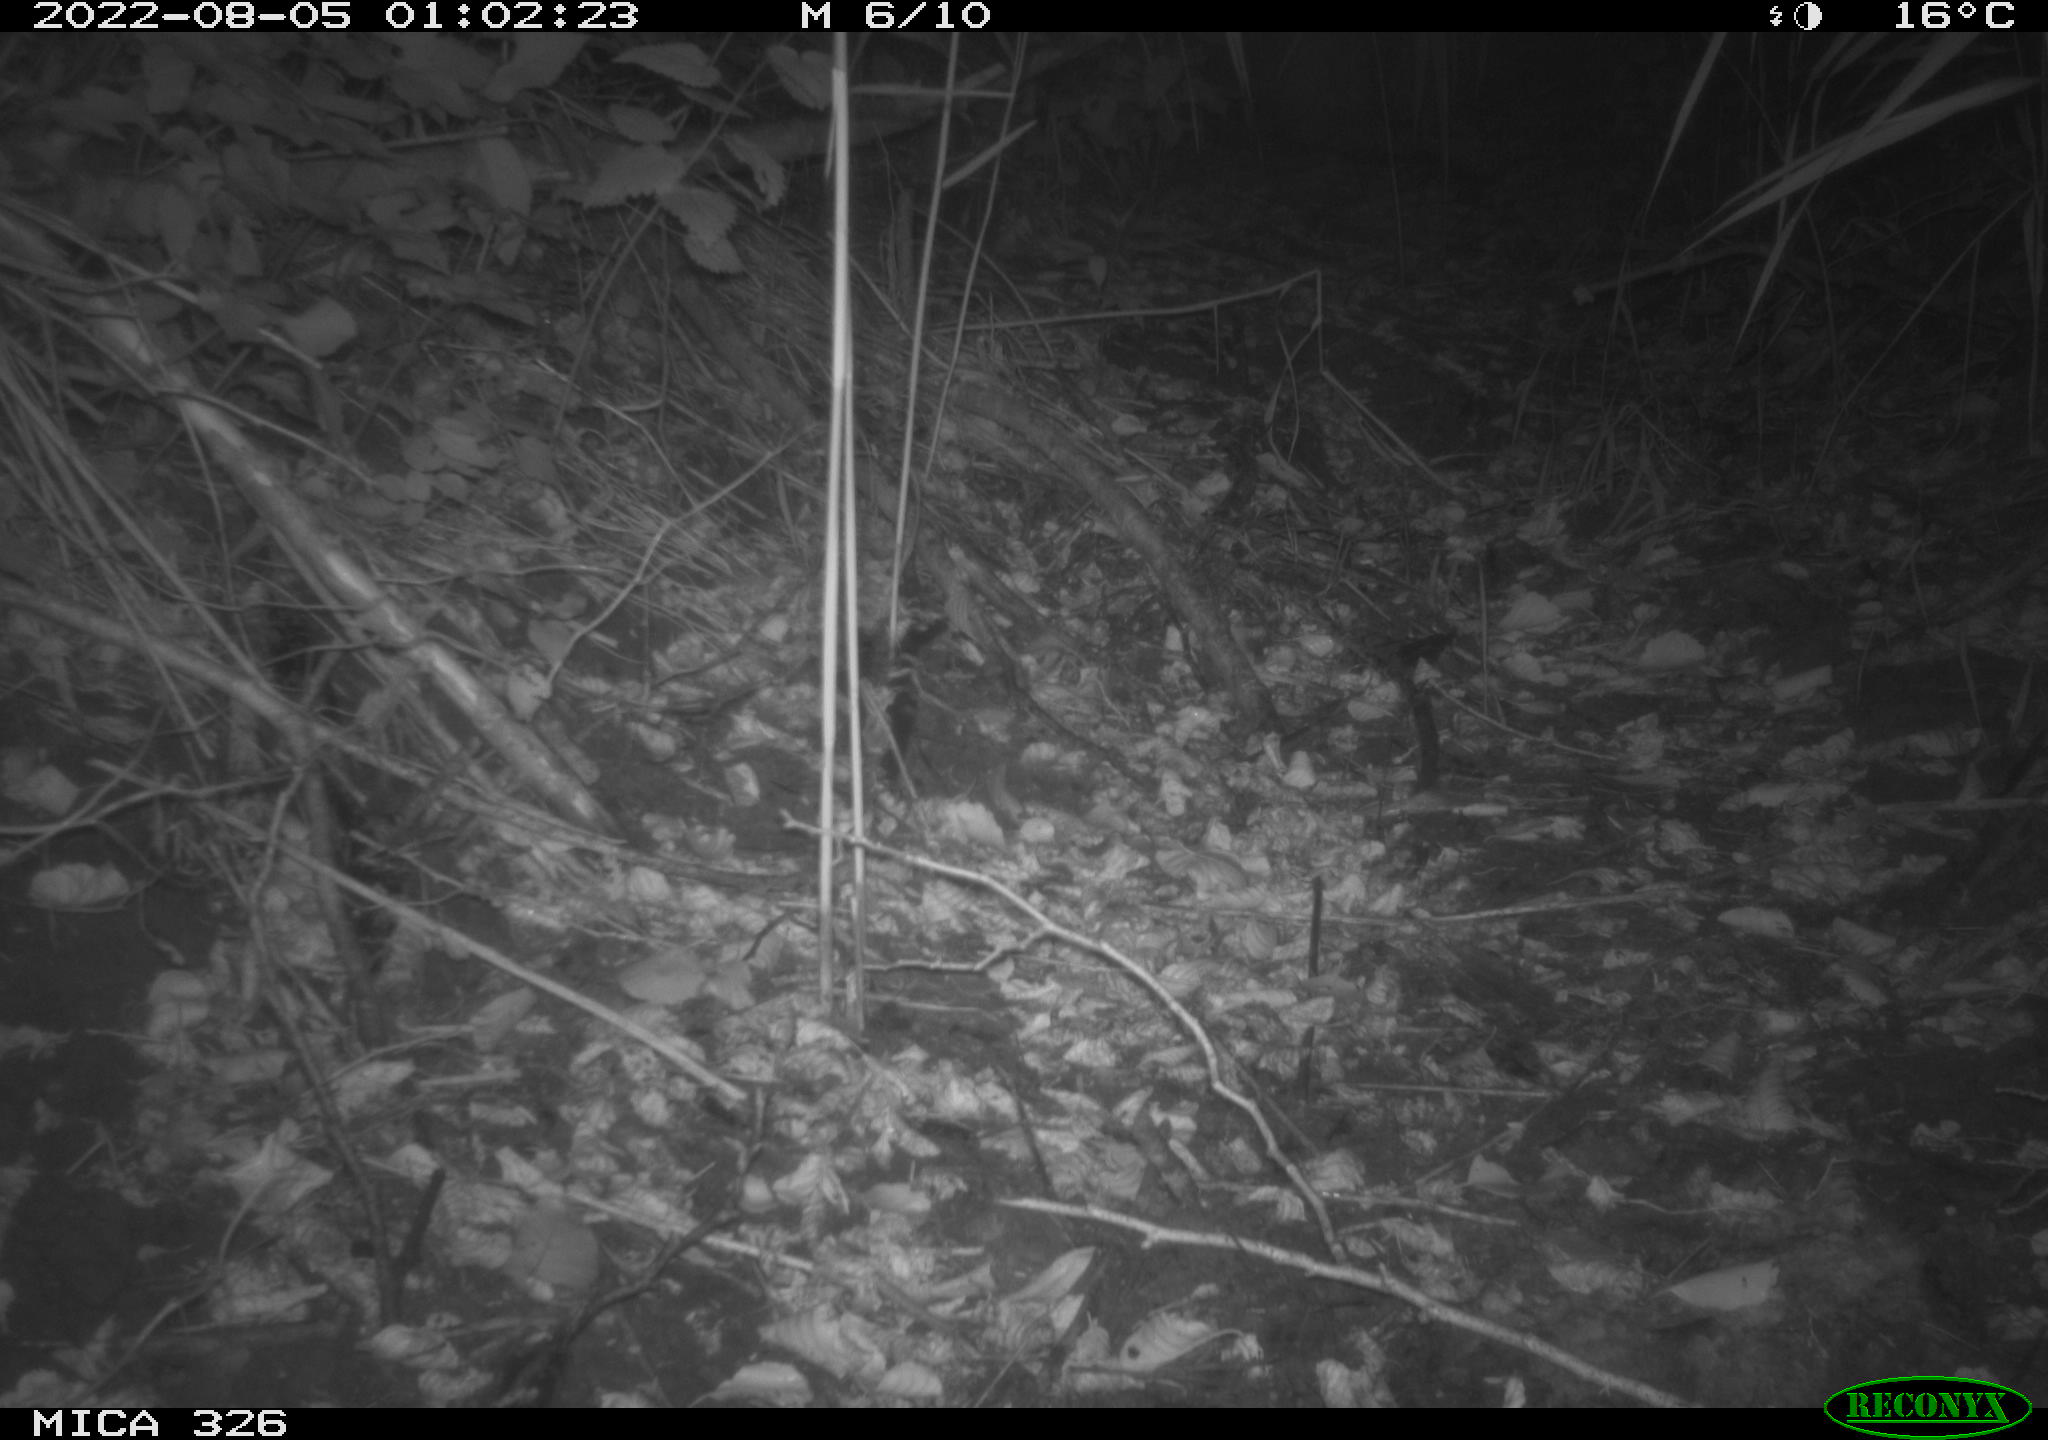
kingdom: Animalia
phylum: Chordata
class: Mammalia
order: Rodentia
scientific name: Rodentia
